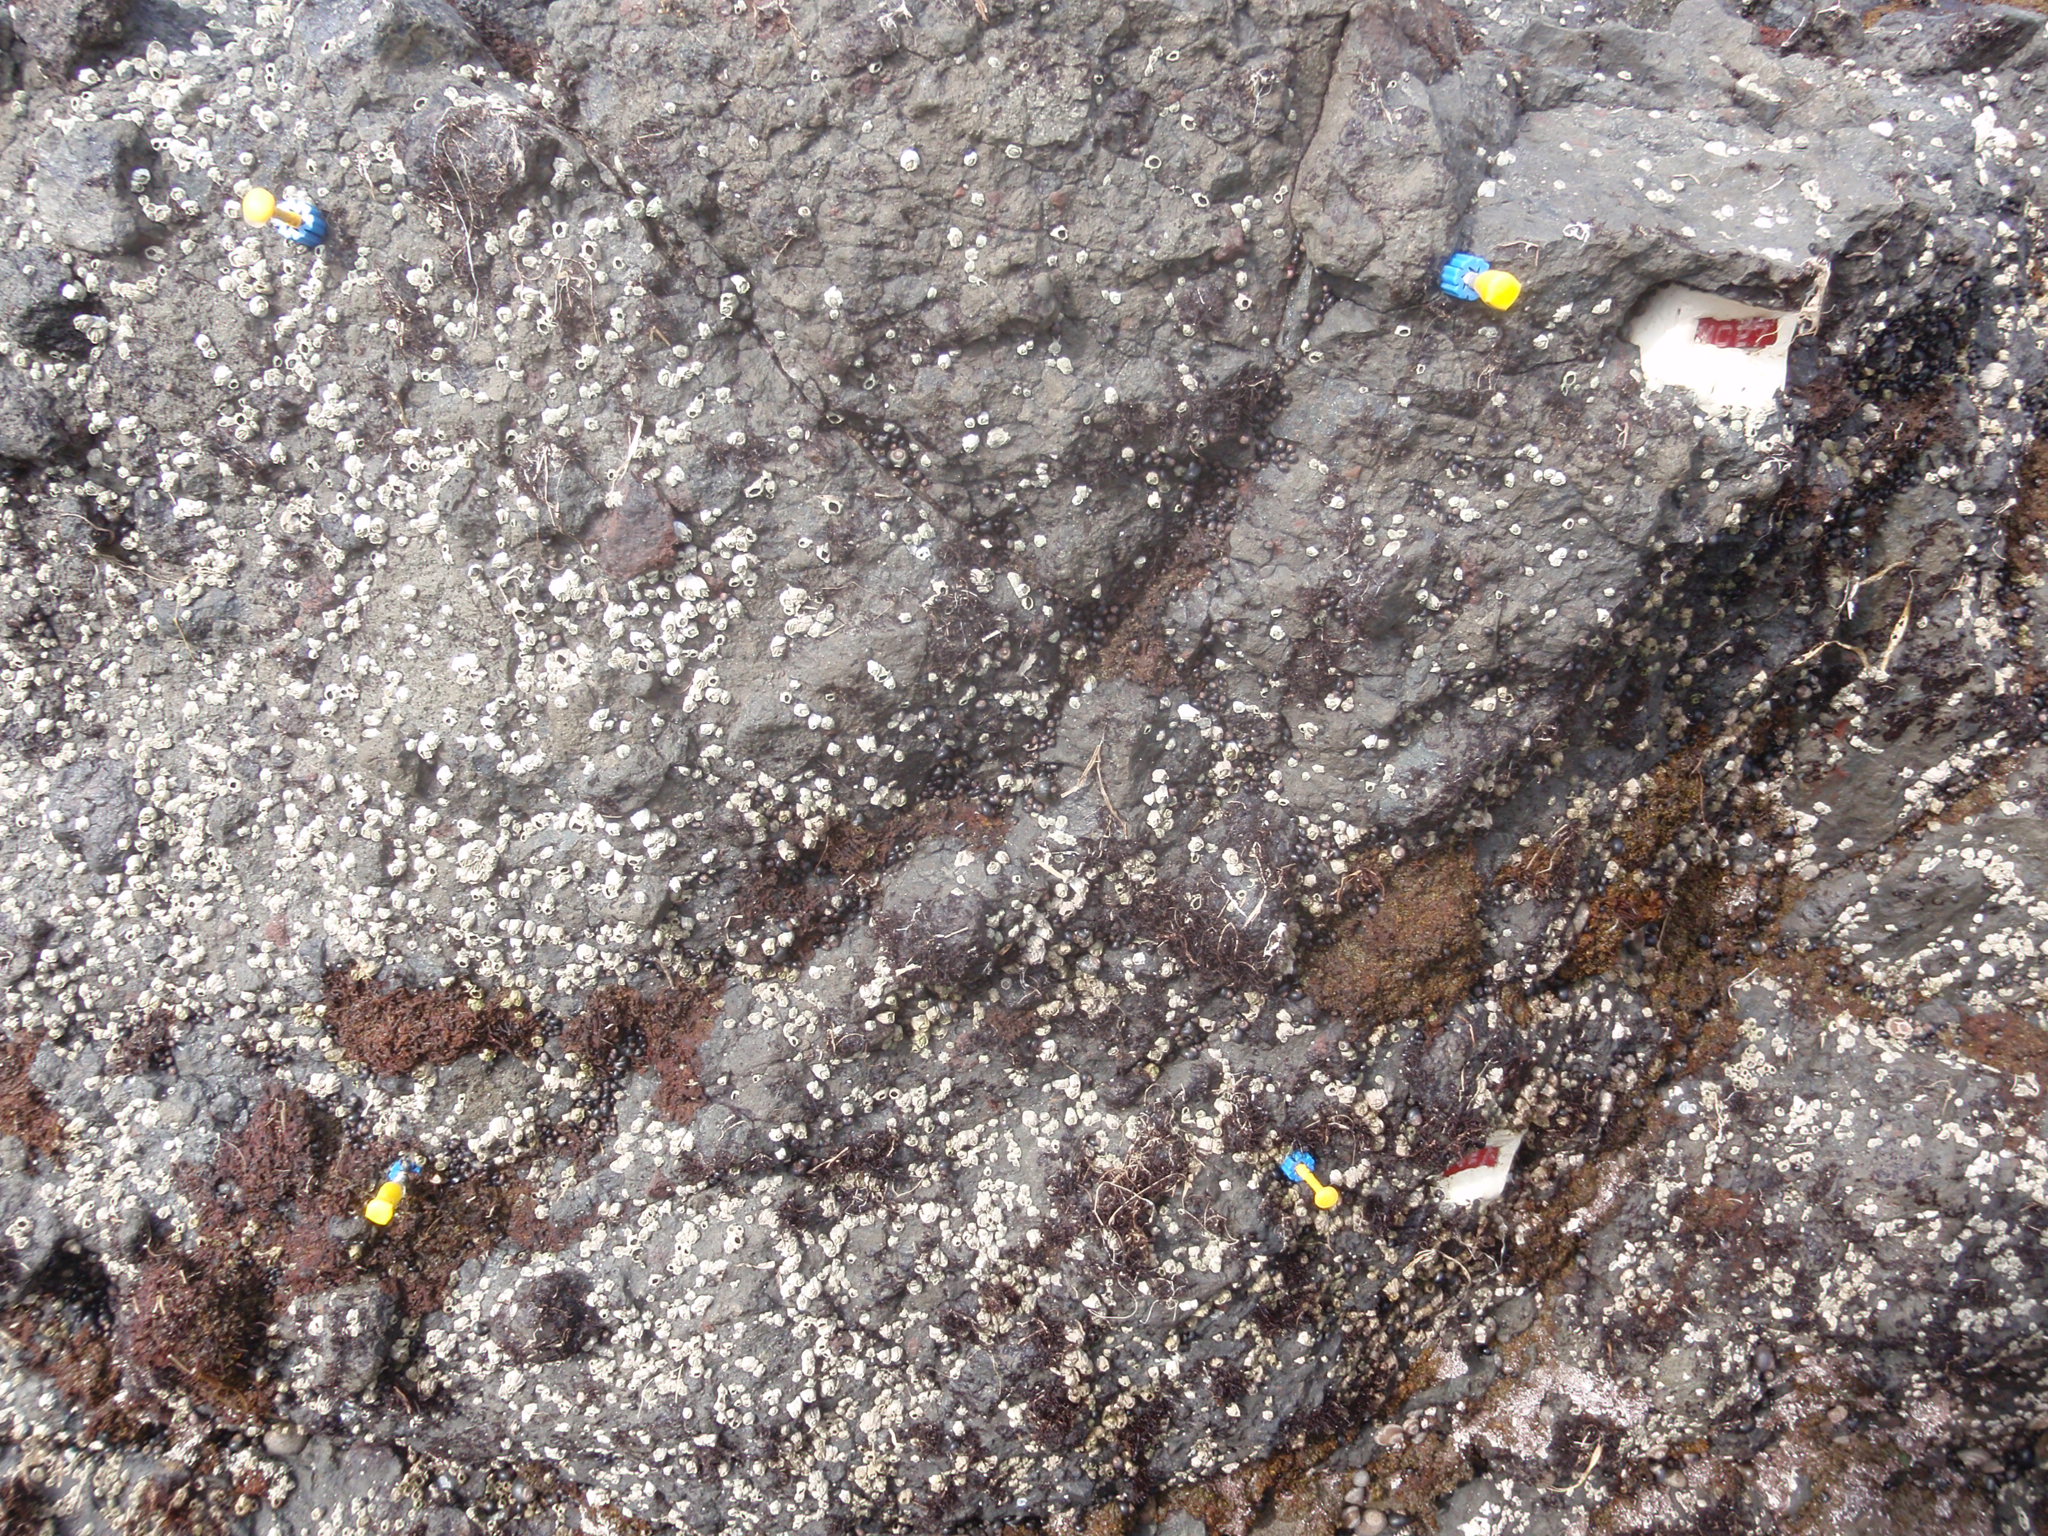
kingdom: Animalia
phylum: Arthropoda
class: Maxillopoda
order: Sessilia
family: Chthamalidae
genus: Chthamalus
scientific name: Chthamalus dalli
